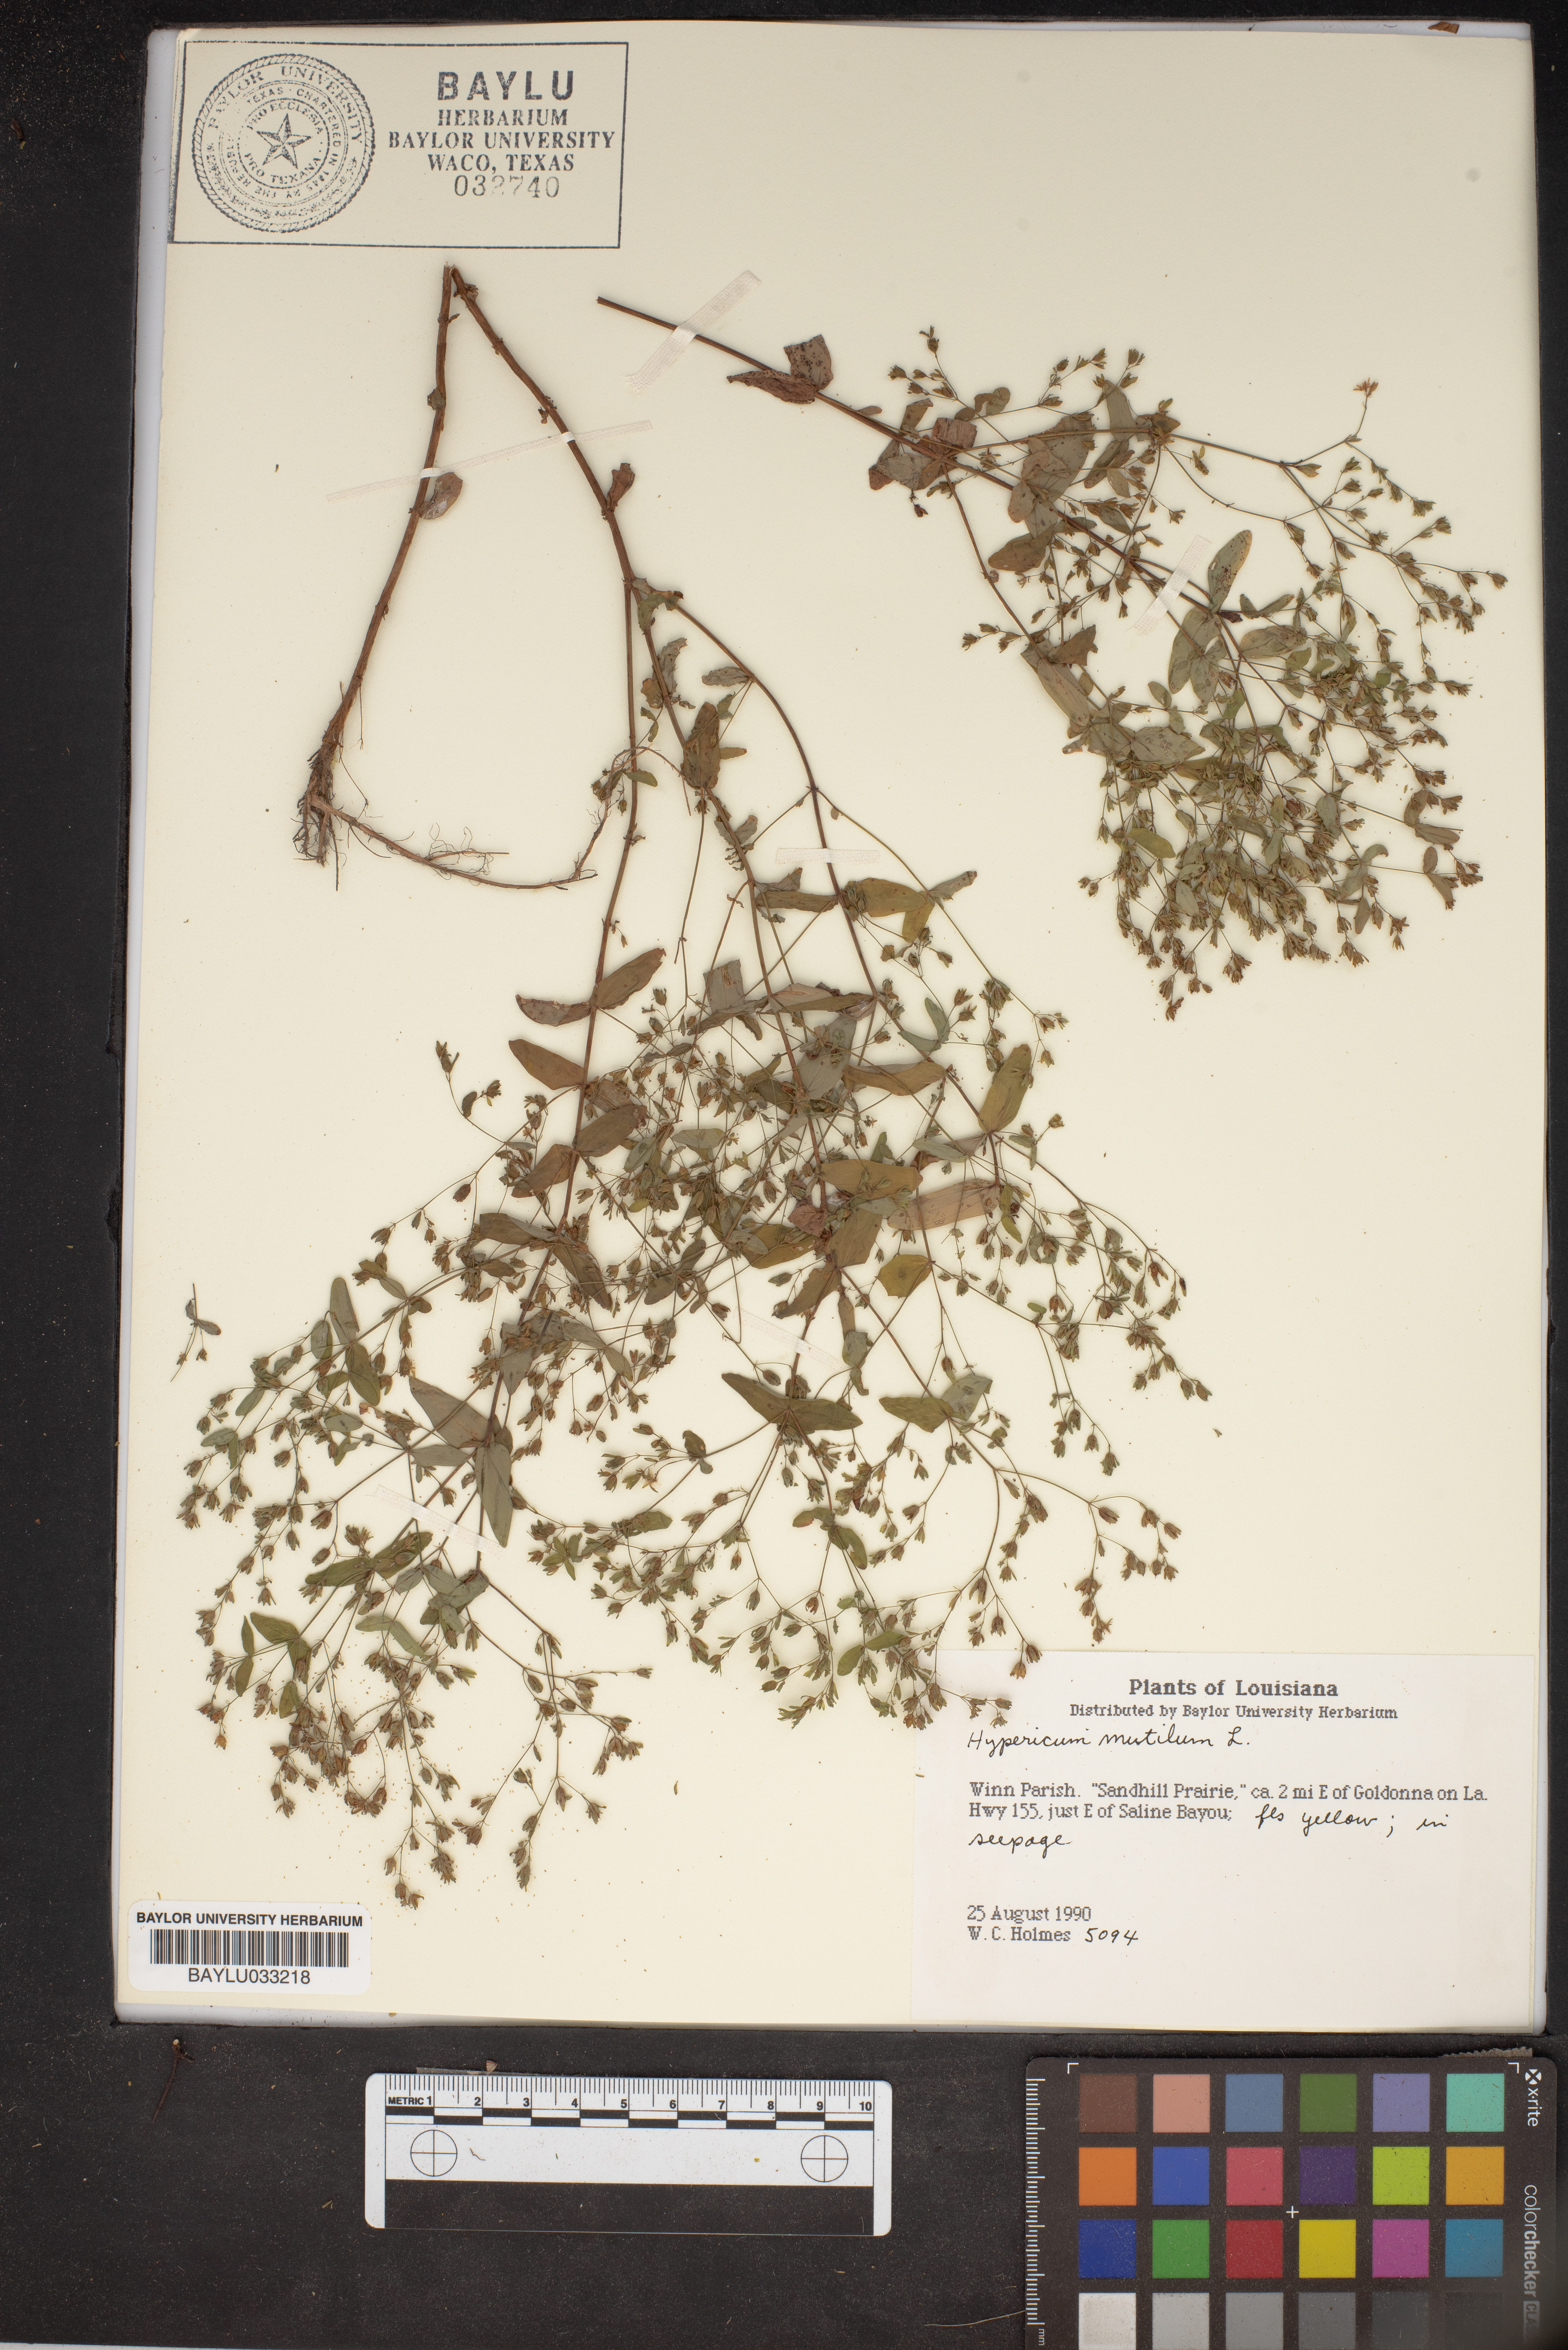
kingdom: Plantae
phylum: Tracheophyta
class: Magnoliopsida
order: Malpighiales
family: Hypericaceae
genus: Hypericum
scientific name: Hypericum mutilum
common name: Dwarf st. john's-wort
